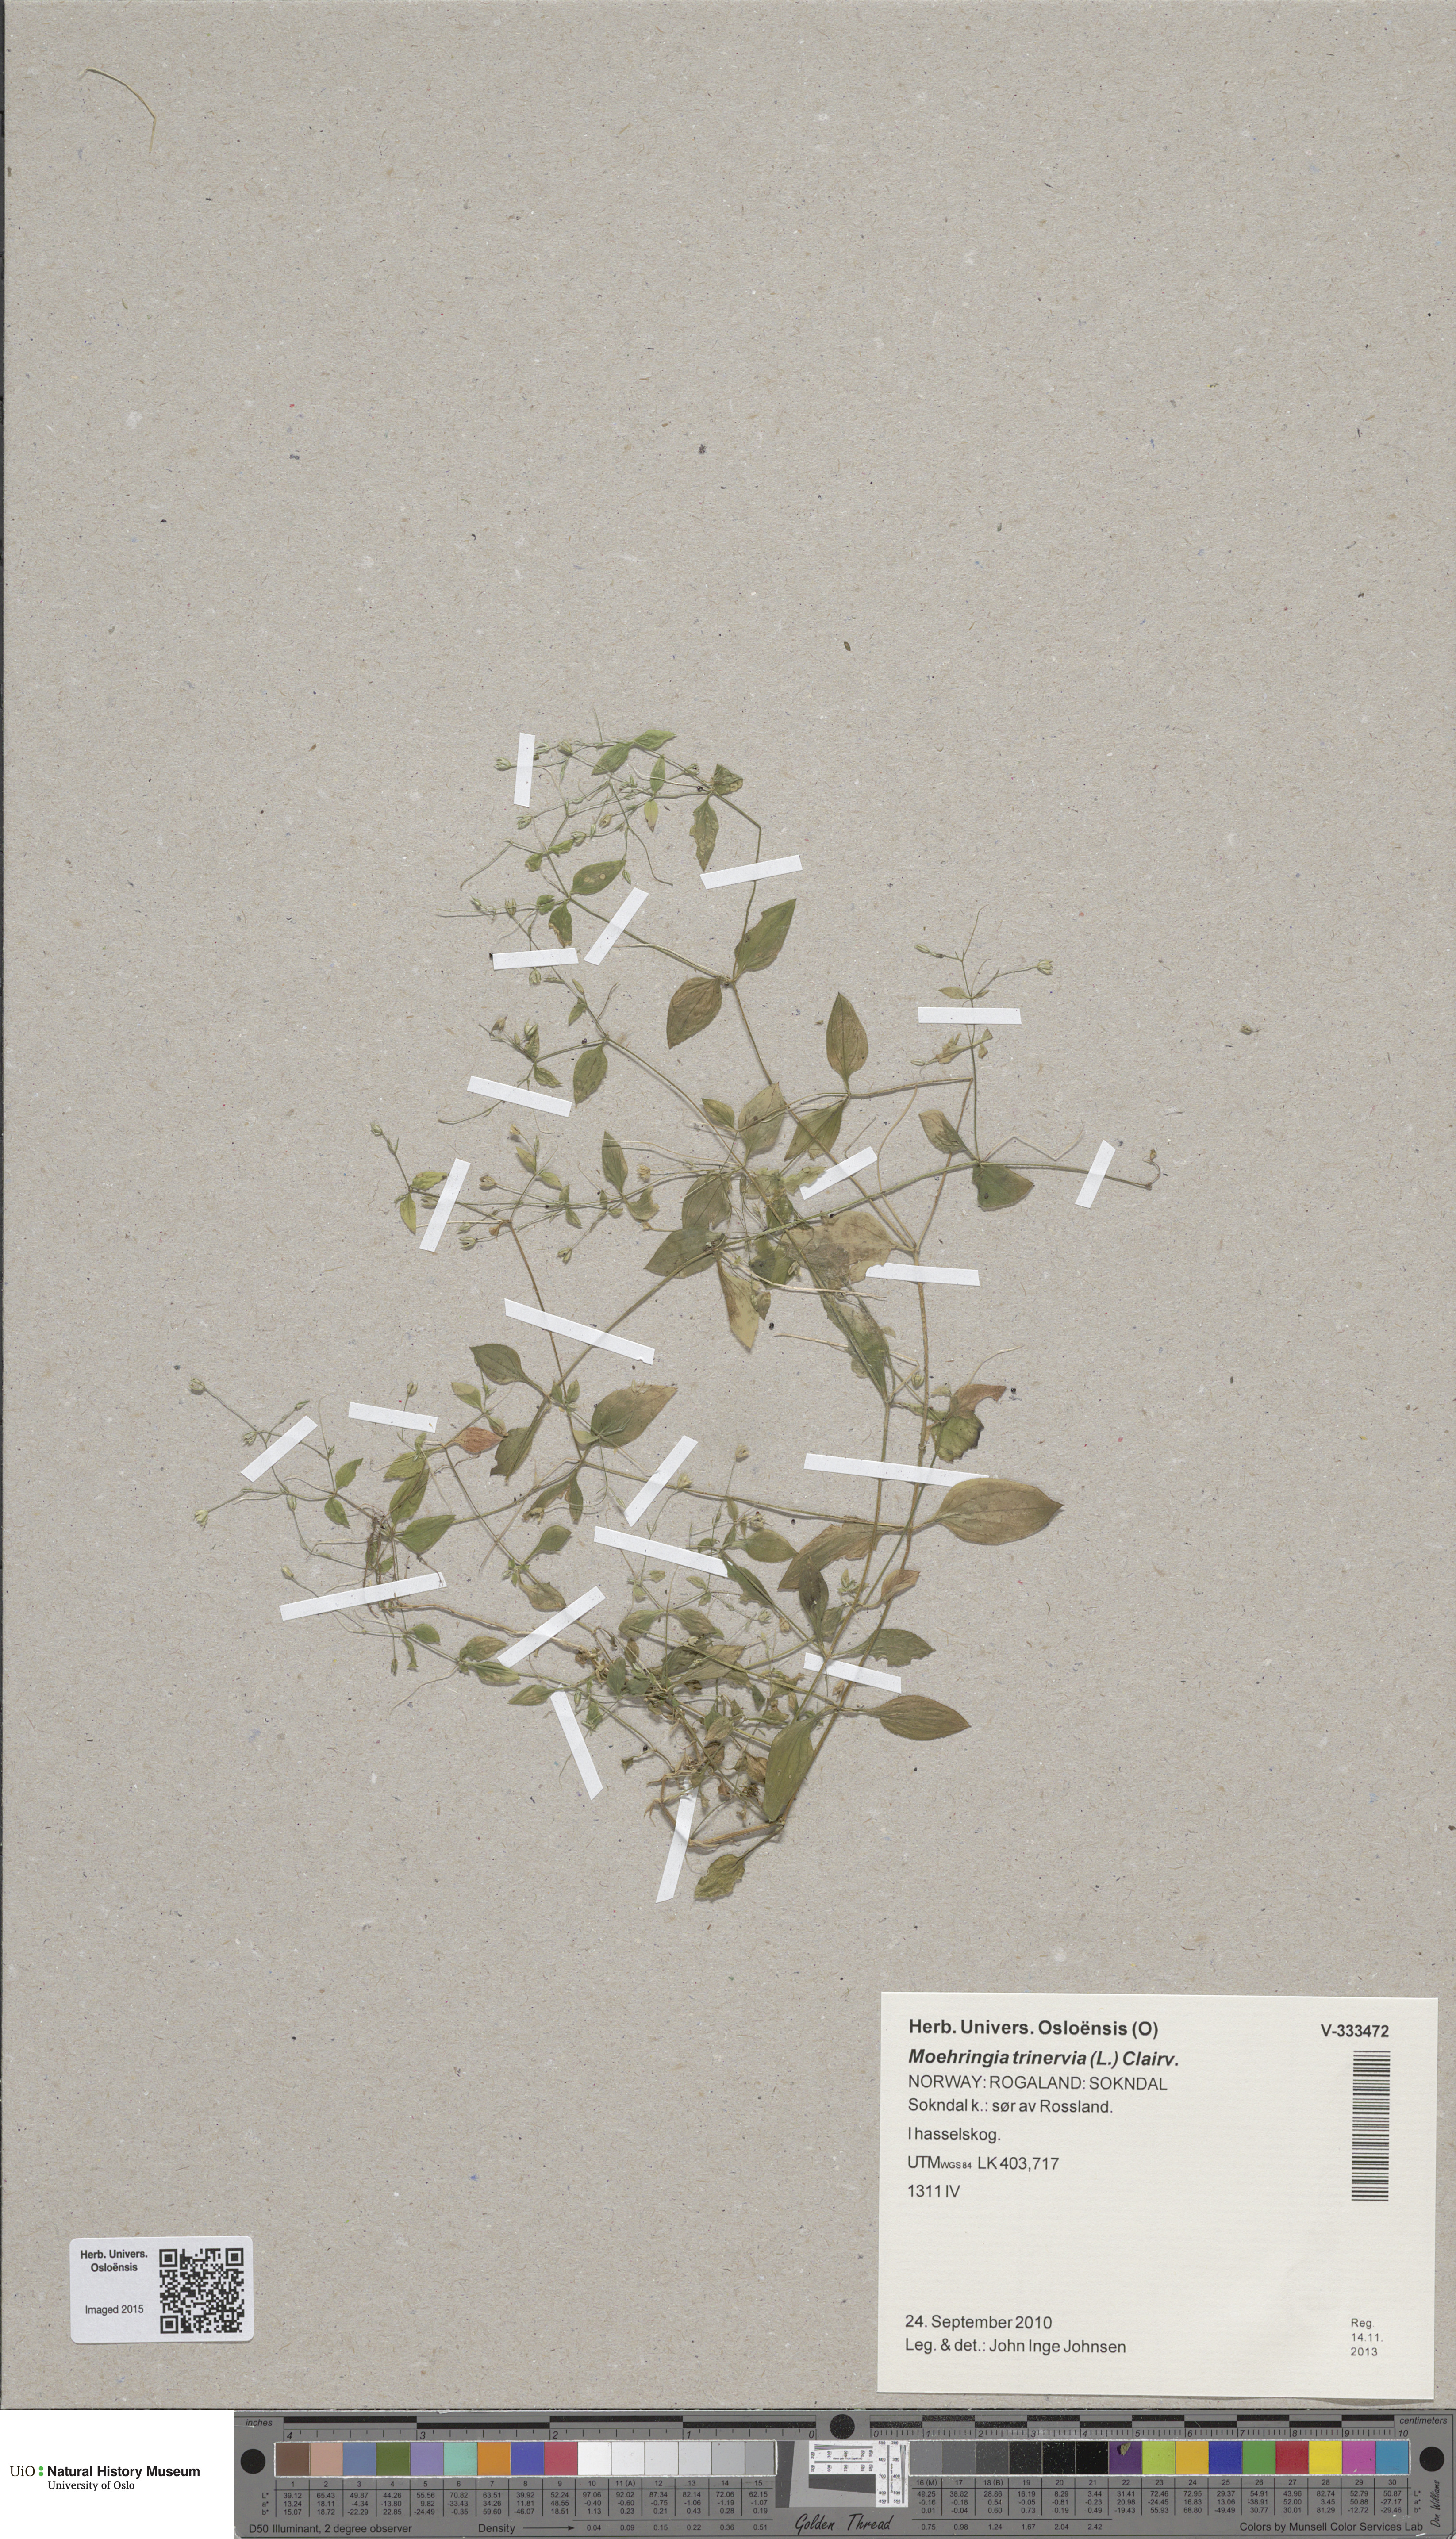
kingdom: Plantae
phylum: Tracheophyta
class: Magnoliopsida
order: Caryophyllales
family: Caryophyllaceae
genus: Moehringia
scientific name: Moehringia trinervia
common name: Three-nerved sandwort
